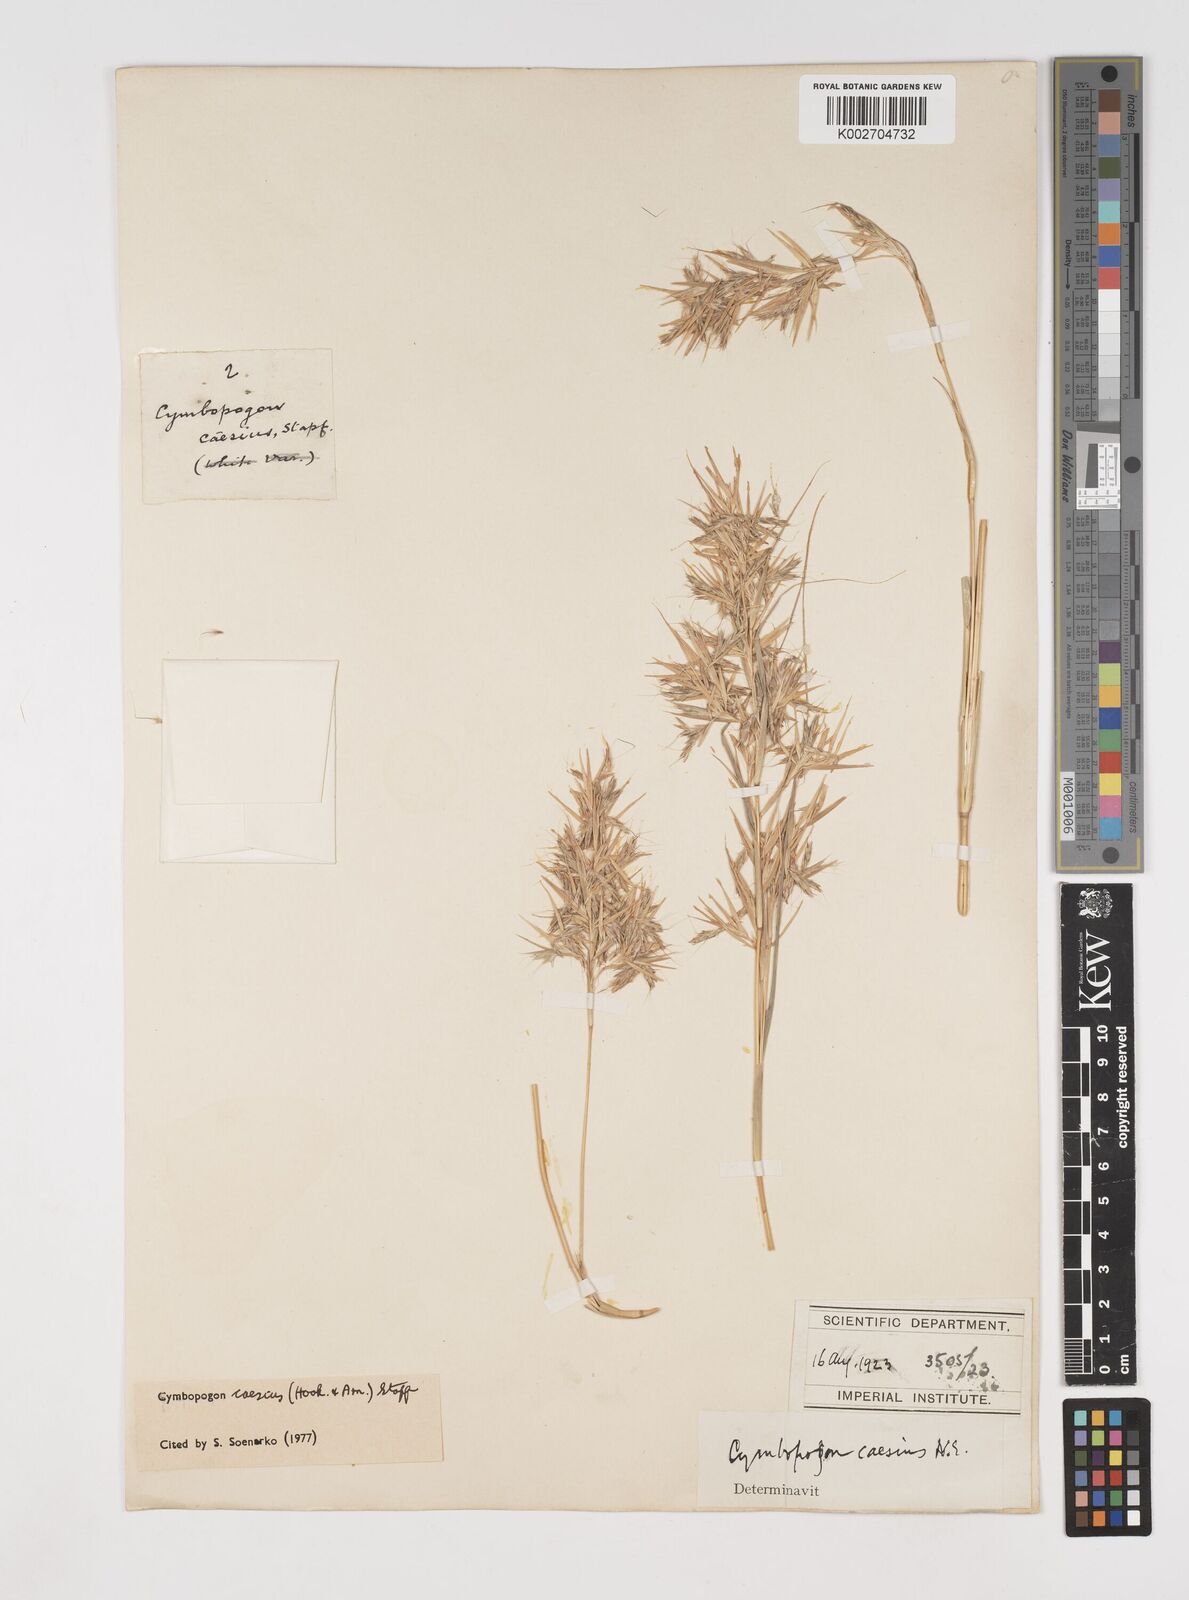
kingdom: Plantae
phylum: Tracheophyta
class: Liliopsida
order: Poales
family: Poaceae
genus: Cymbopogon
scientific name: Cymbopogon caesius
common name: Kachi grass
